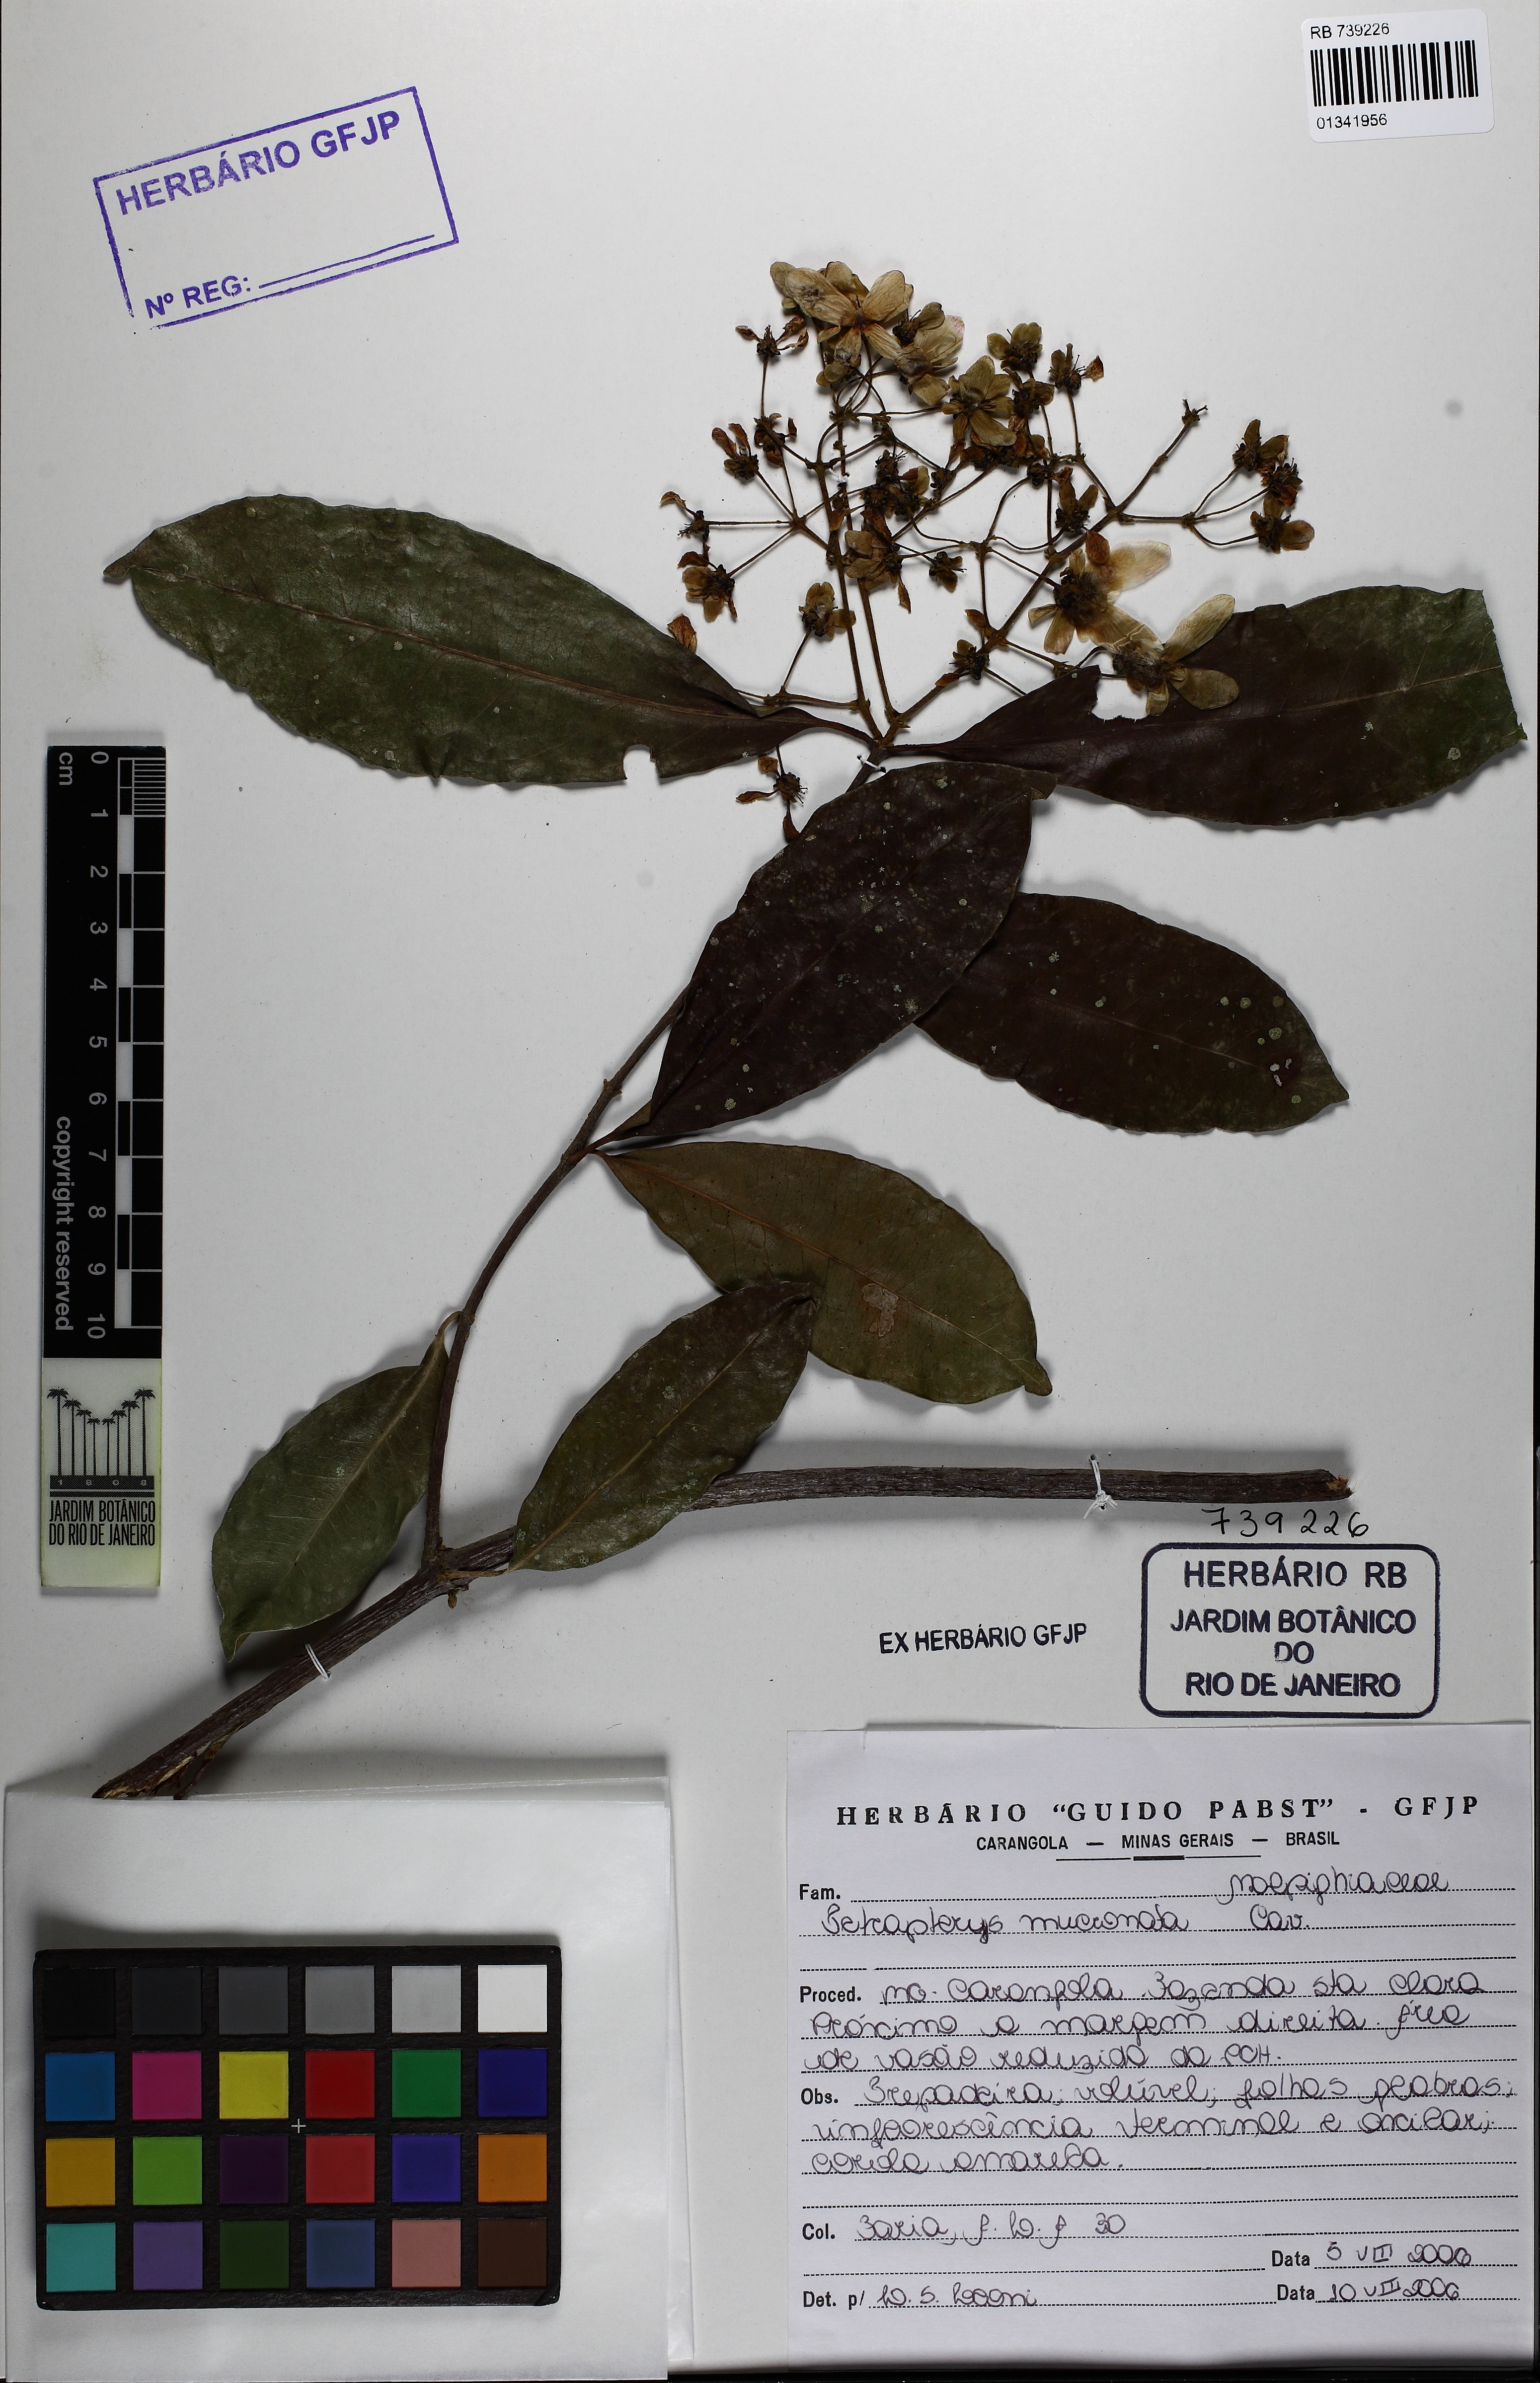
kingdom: Plantae
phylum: Tracheophyta
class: Magnoliopsida
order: Malpighiales
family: Malpighiaceae
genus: Tetrapterys
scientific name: Tetrapterys mucronata
